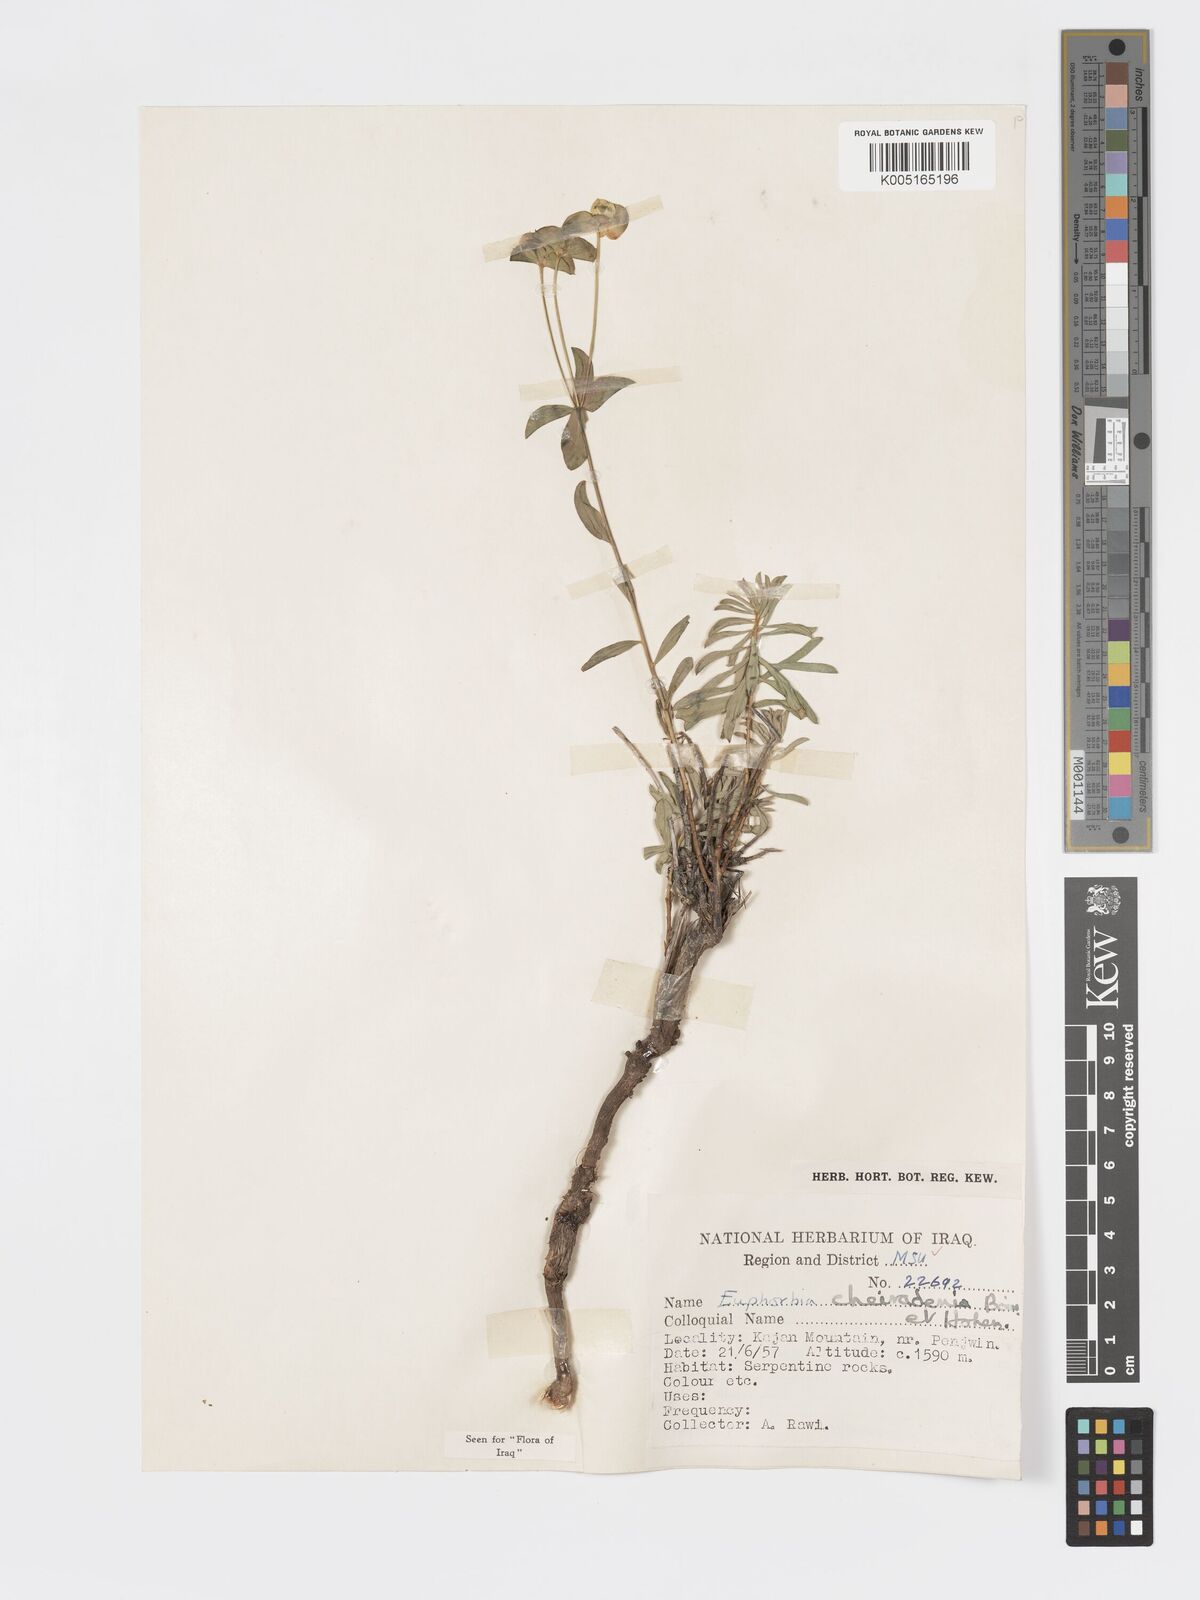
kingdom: Plantae
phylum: Tracheophyta
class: Magnoliopsida
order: Malpighiales
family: Euphorbiaceae
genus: Euphorbia
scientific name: Euphorbia cheiradenia
